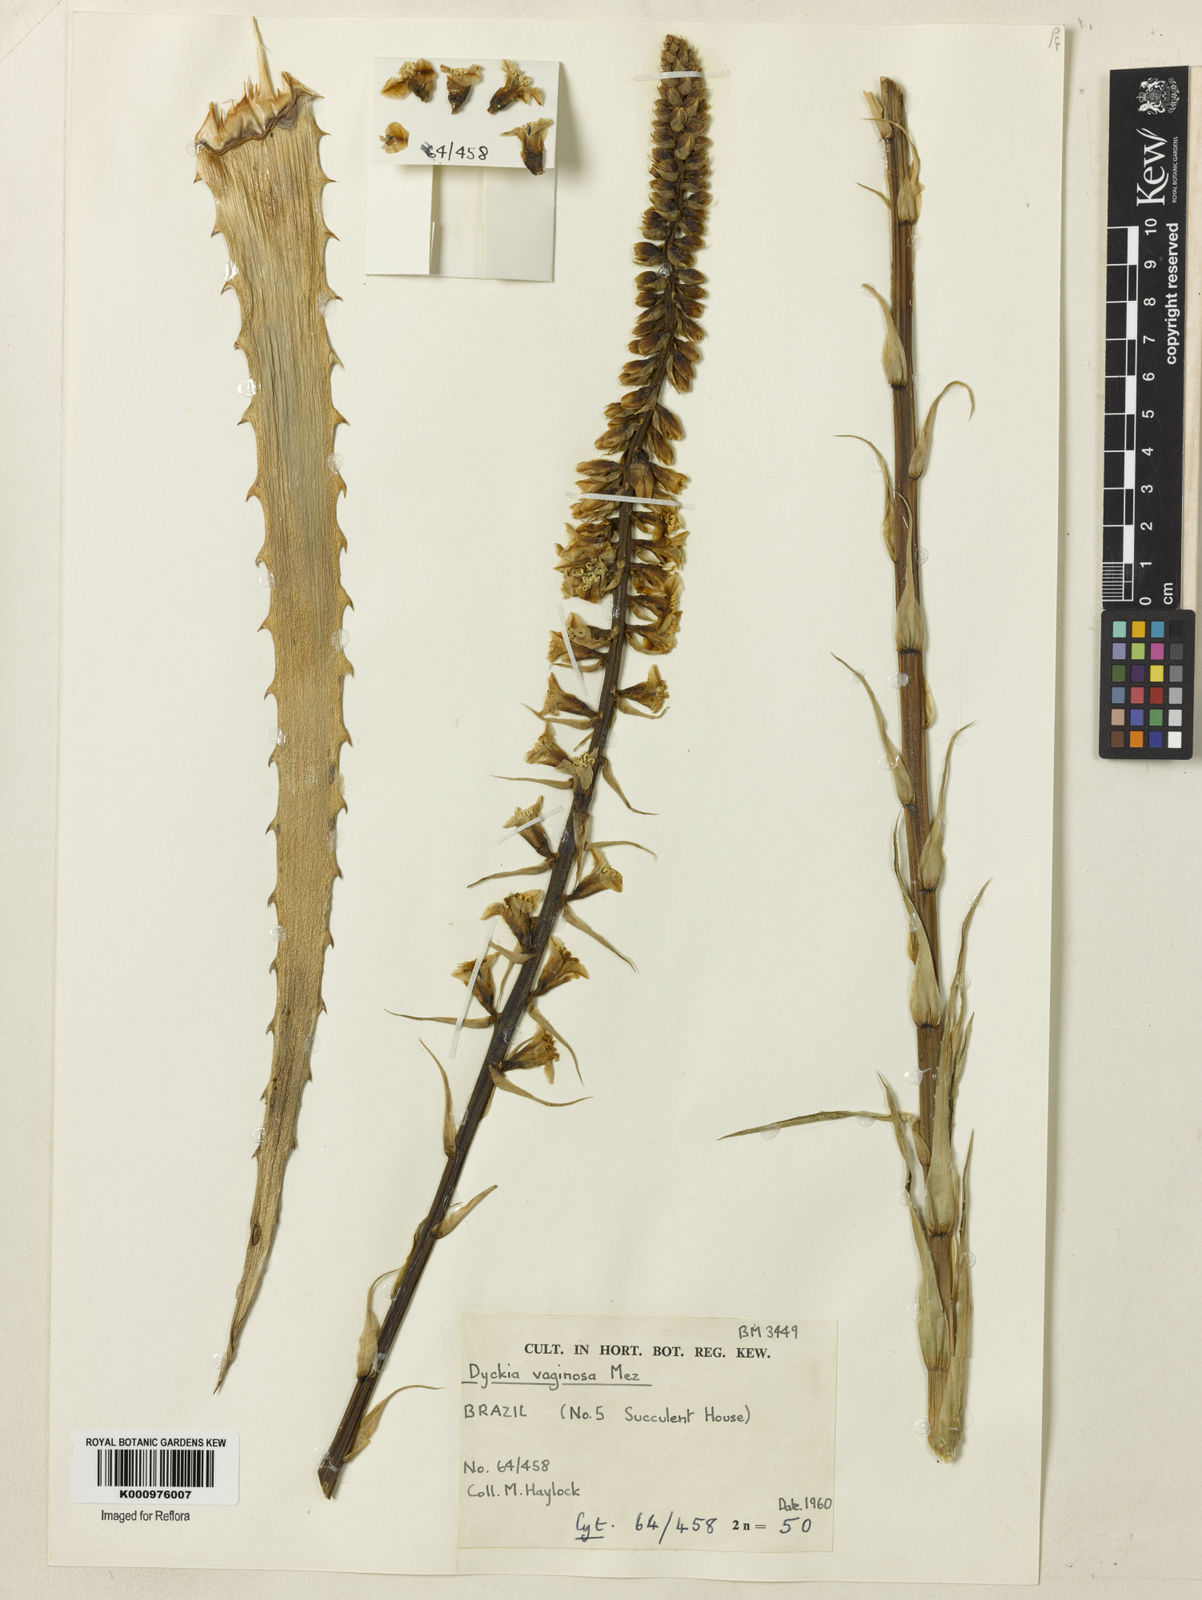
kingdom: Plantae
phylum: Tracheophyta
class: Liliopsida
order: Poales
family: Bromeliaceae
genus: Dyckia
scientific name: Dyckia remotiflora
